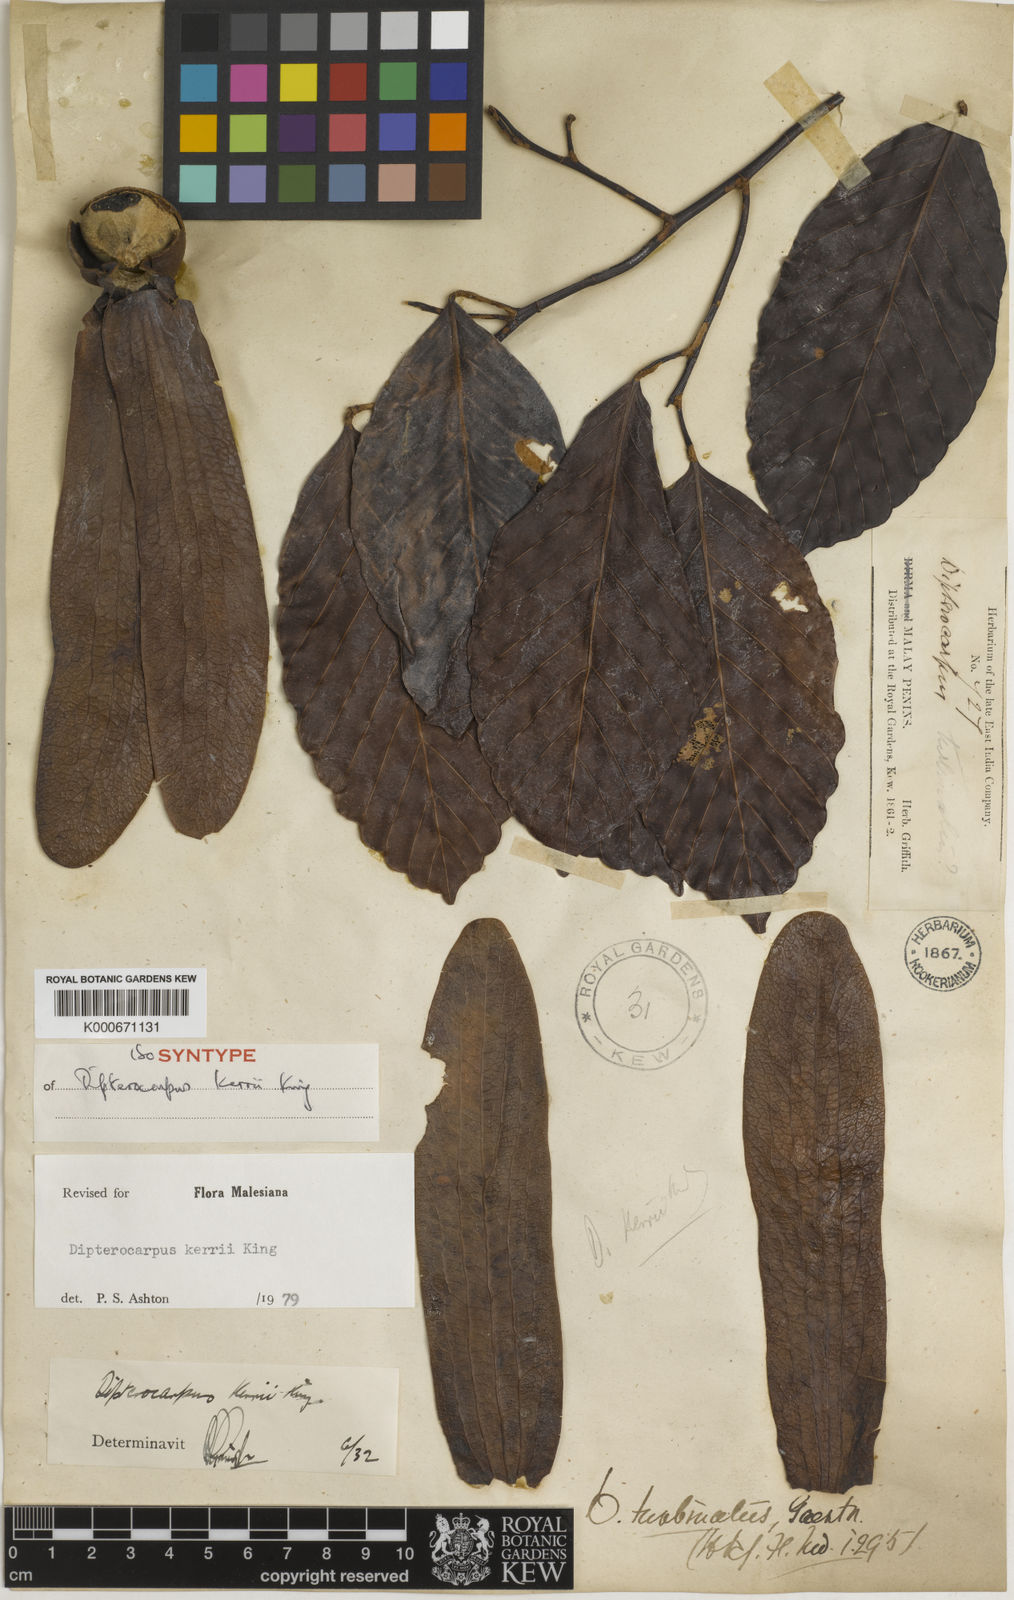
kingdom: Plantae
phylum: Tracheophyta
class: Magnoliopsida
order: Malvales
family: Dipterocarpaceae
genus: Dipterocarpus
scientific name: Dipterocarpus kerrii
